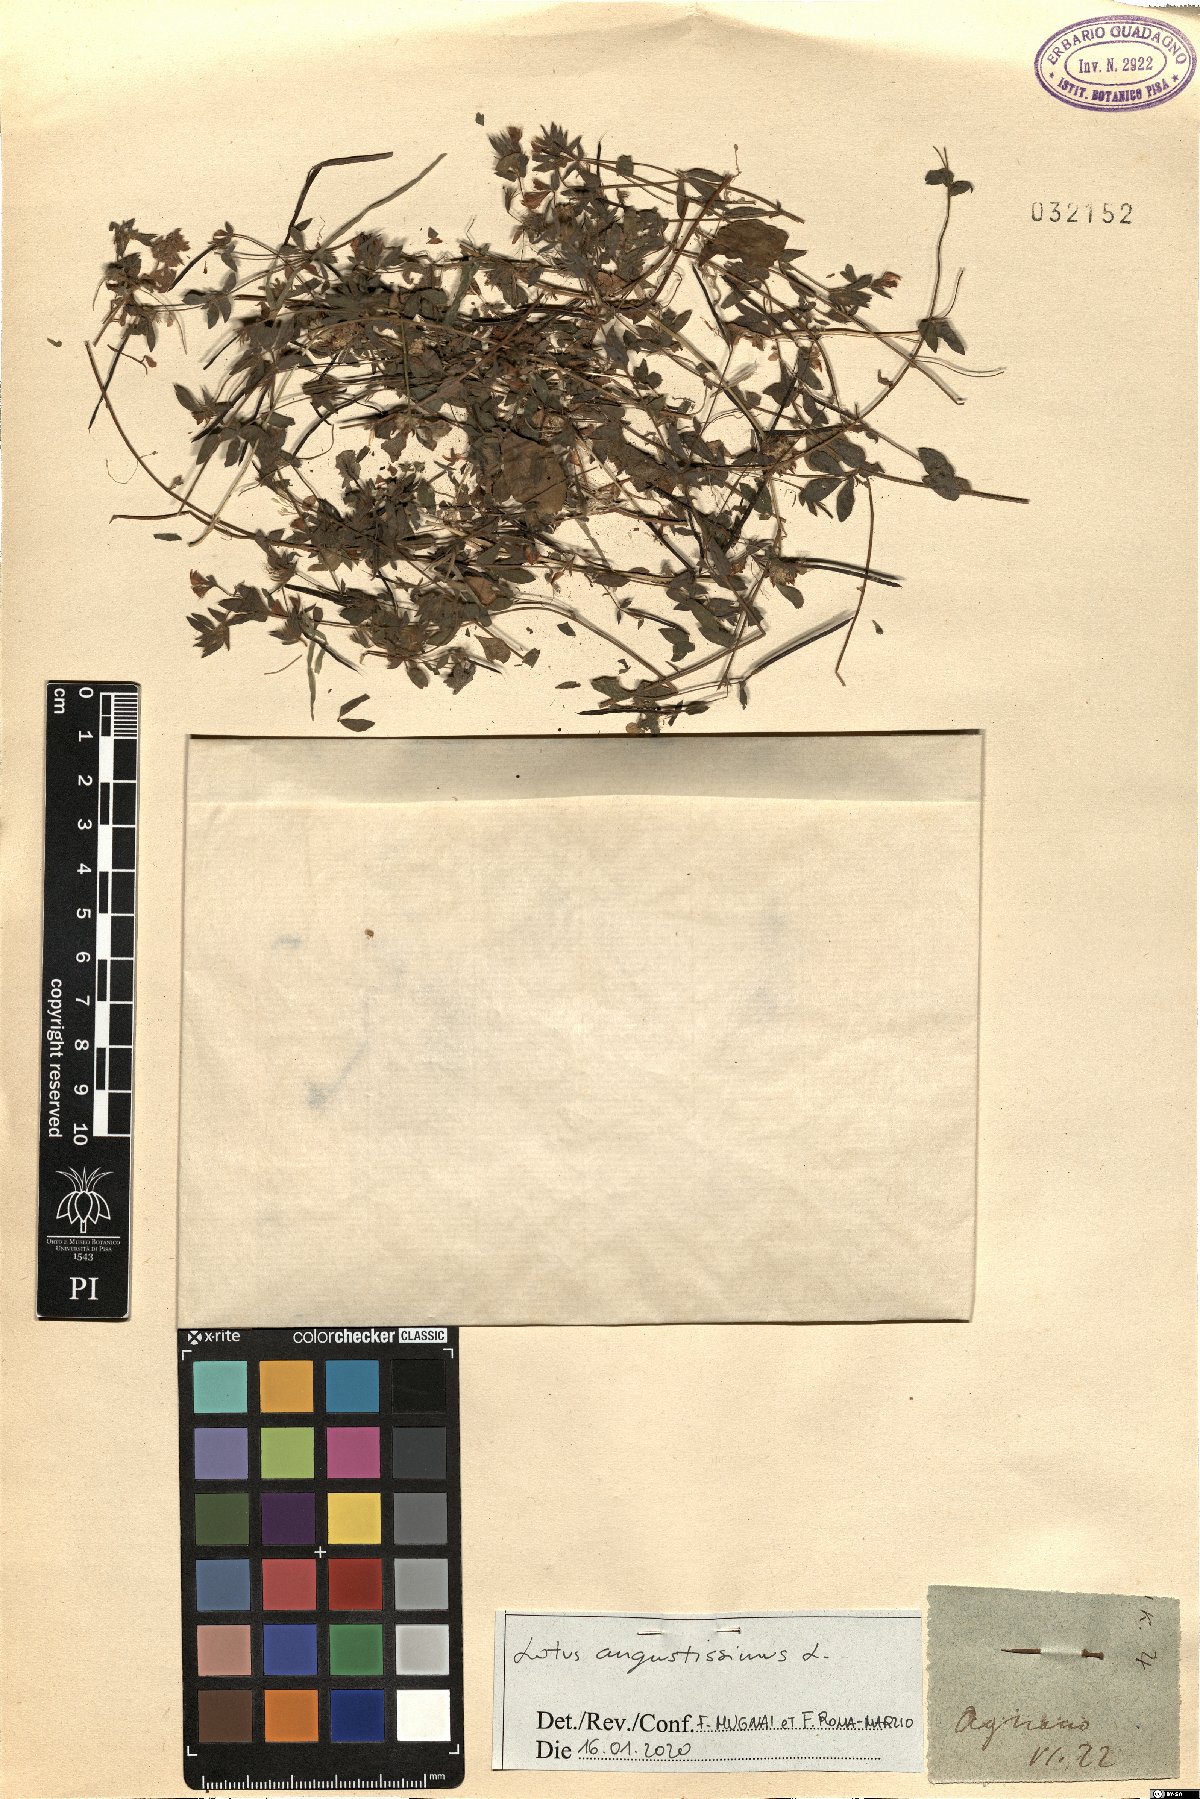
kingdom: Plantae
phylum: Tracheophyta
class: Magnoliopsida
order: Fabales
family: Fabaceae
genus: Lotus
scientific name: Lotus angustissimus
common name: Slender bird's-foot trefoil
